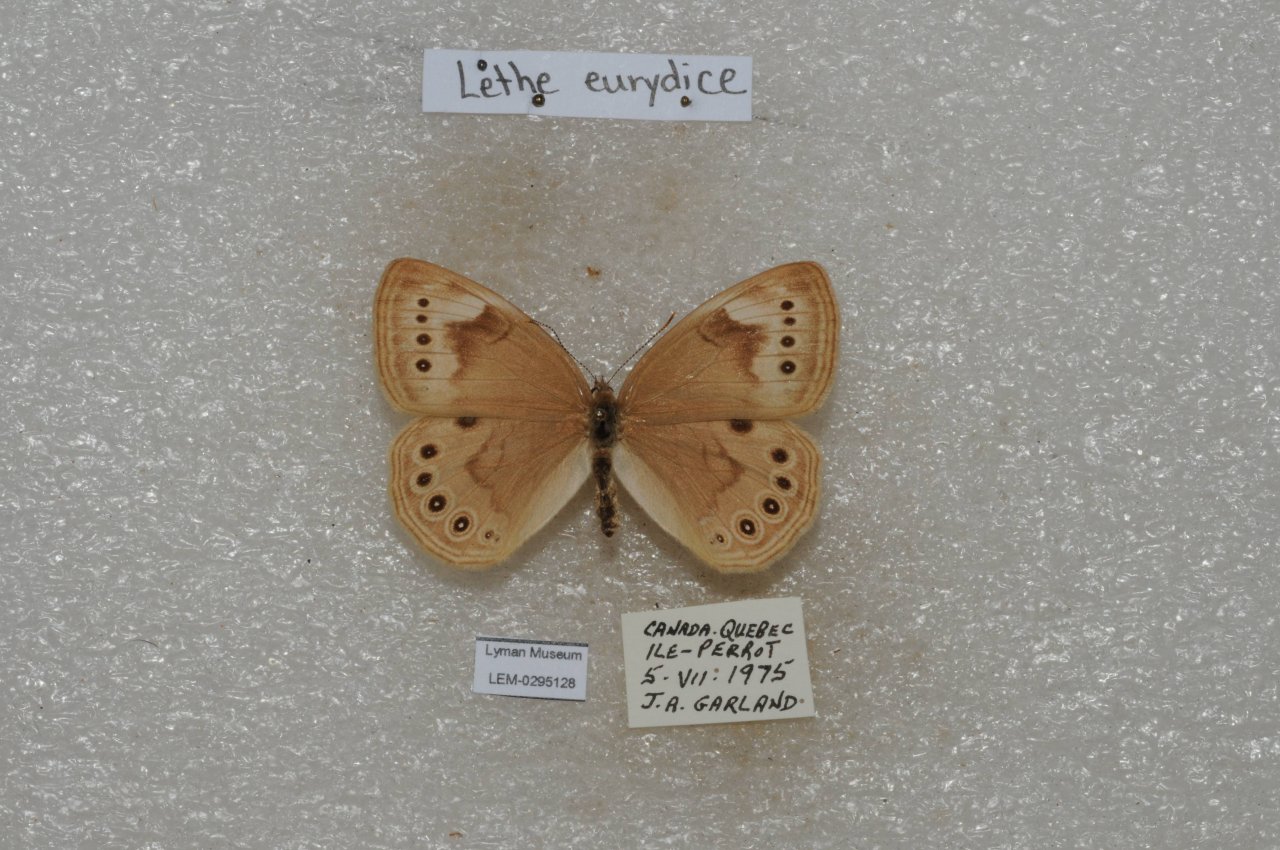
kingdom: Animalia
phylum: Arthropoda
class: Insecta
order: Lepidoptera
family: Nymphalidae
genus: Lethe
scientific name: Lethe eurydice
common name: Eyed Brown
